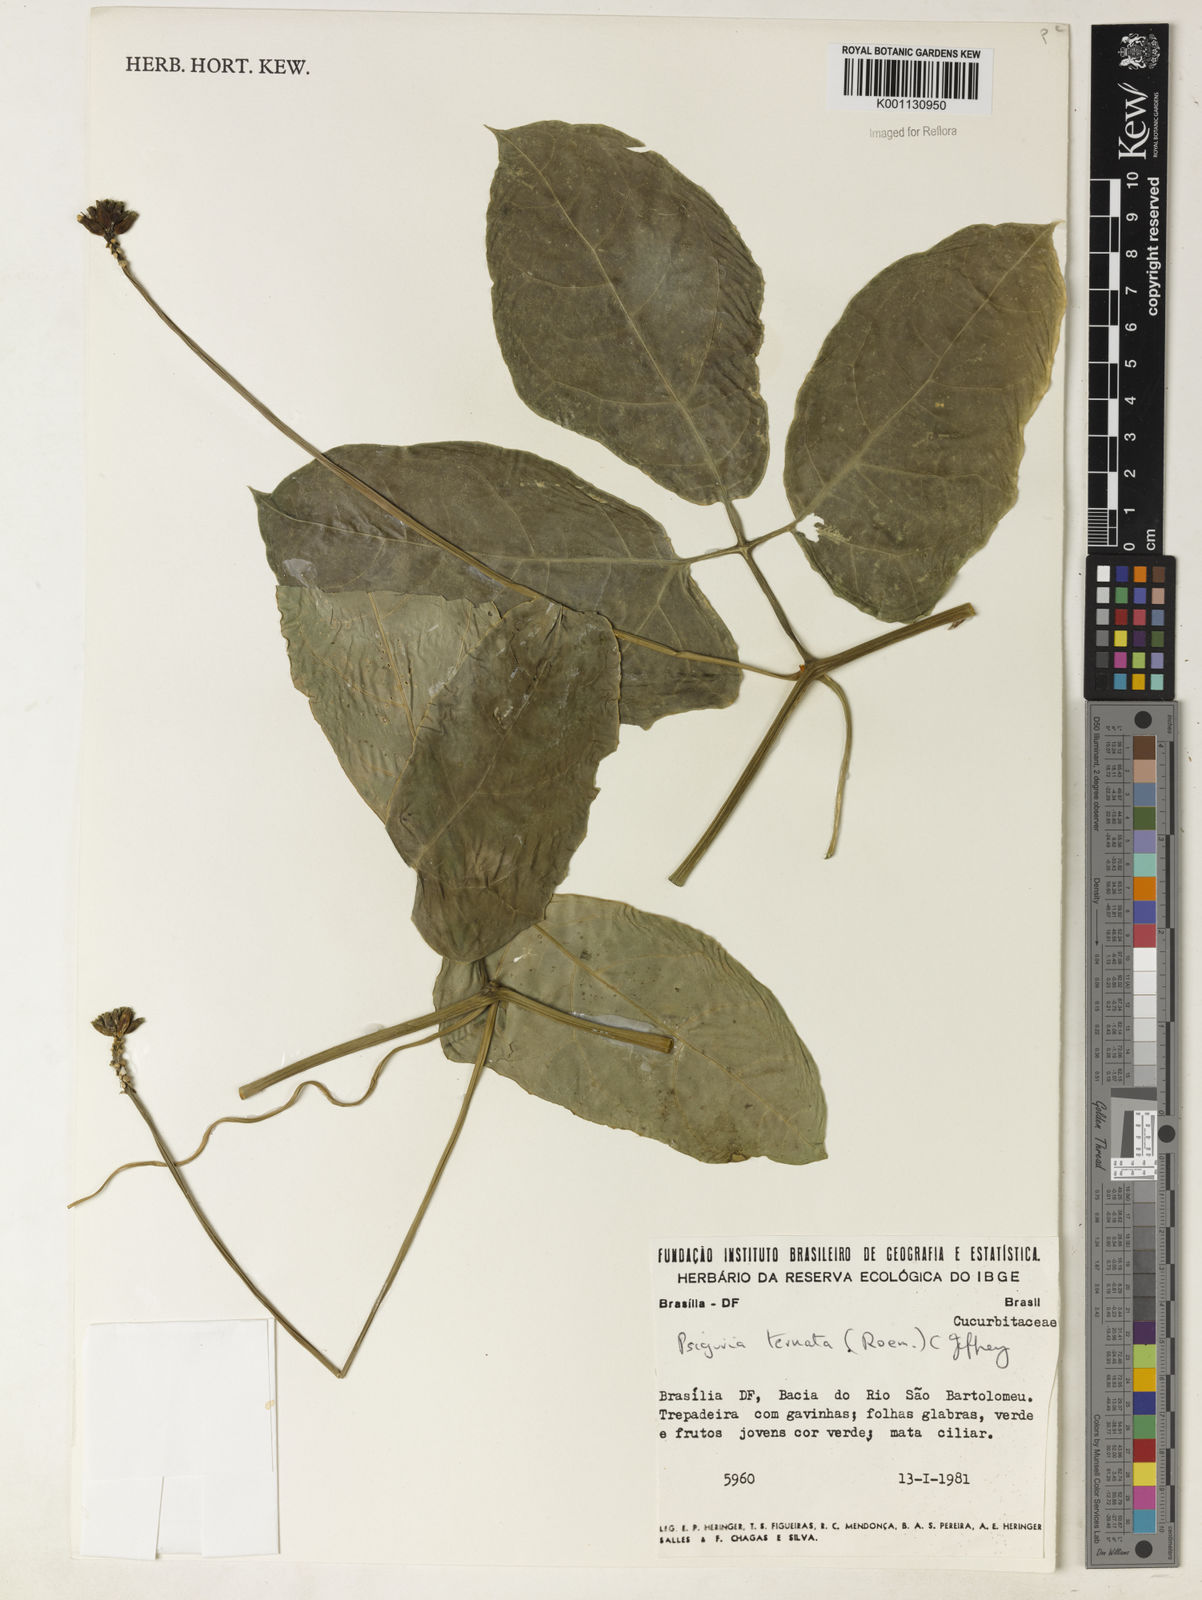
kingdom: Plantae
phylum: Tracheophyta
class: Magnoliopsida
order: Cucurbitales
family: Cucurbitaceae
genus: Psiguria
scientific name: Psiguria ternata
